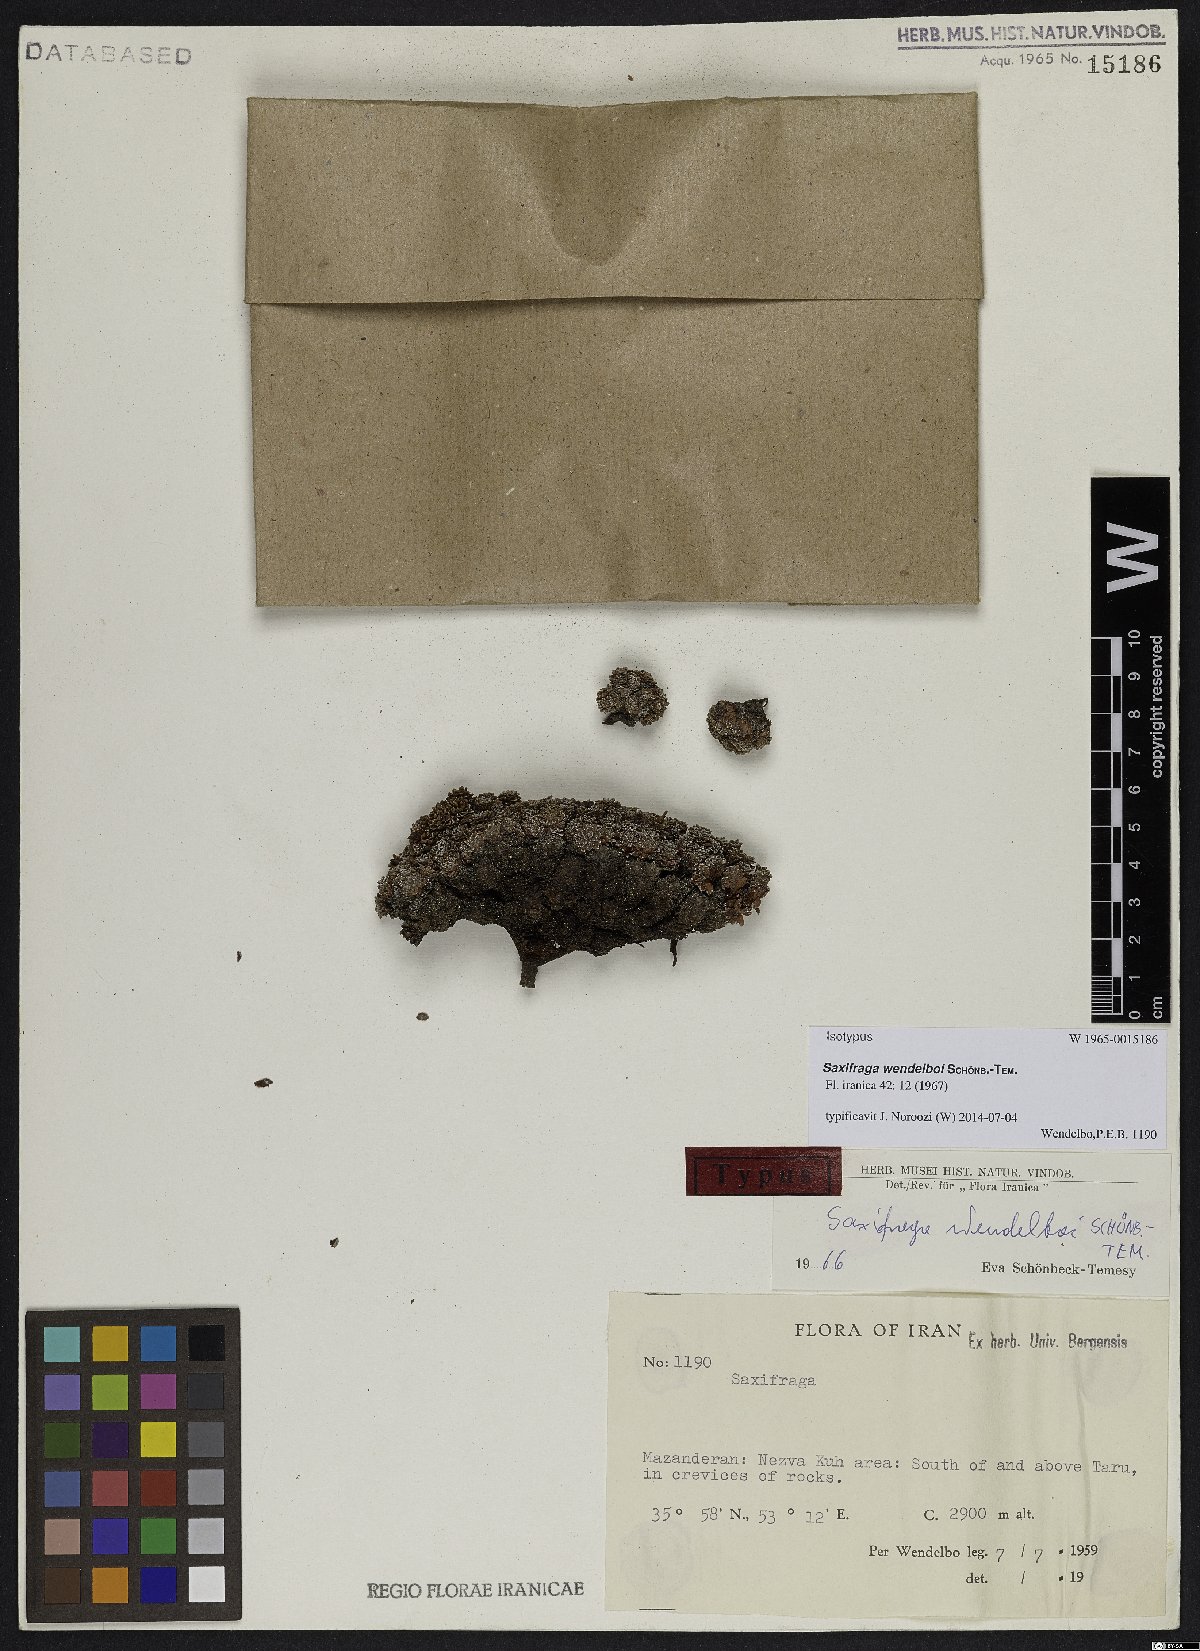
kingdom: Plantae
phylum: Tracheophyta
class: Magnoliopsida
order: Saxifragales
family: Saxifragaceae
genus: Saxifraga
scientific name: Saxifraga wendelboi
